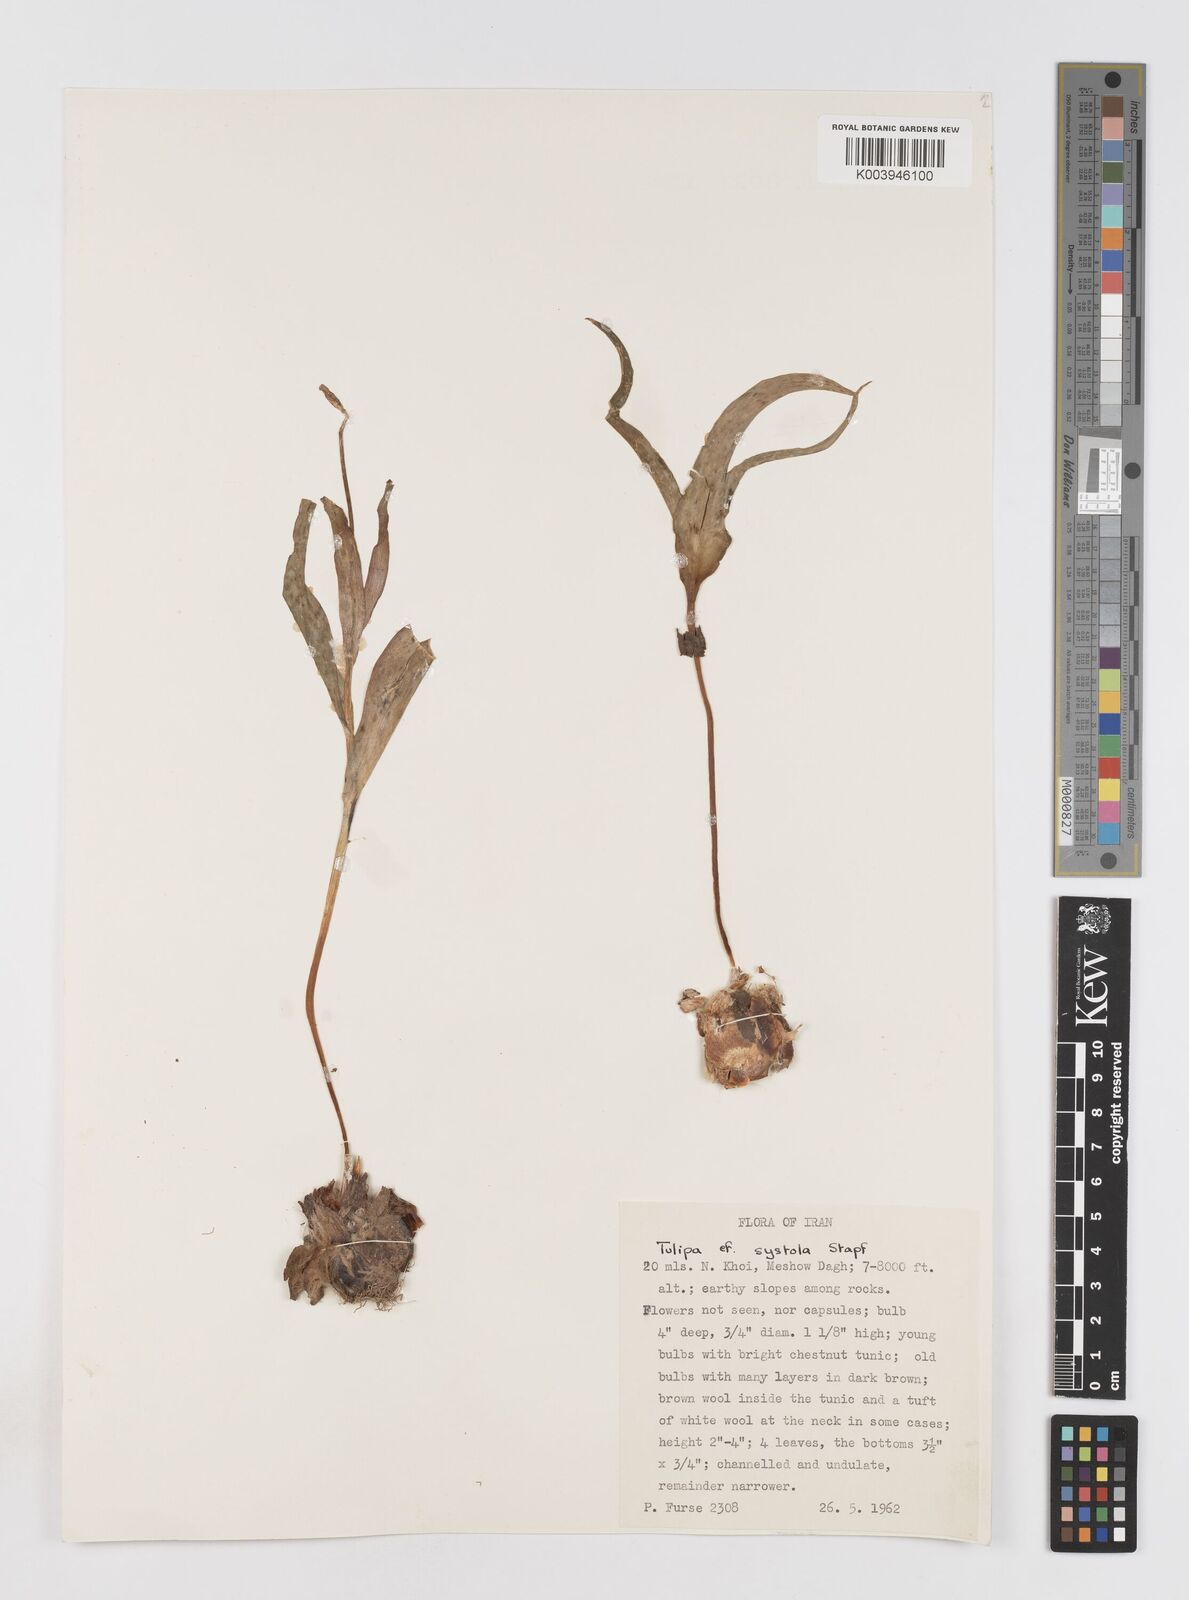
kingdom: Plantae
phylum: Tracheophyta
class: Liliopsida
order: Liliales
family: Liliaceae
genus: Tulipa
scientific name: Tulipa systola
